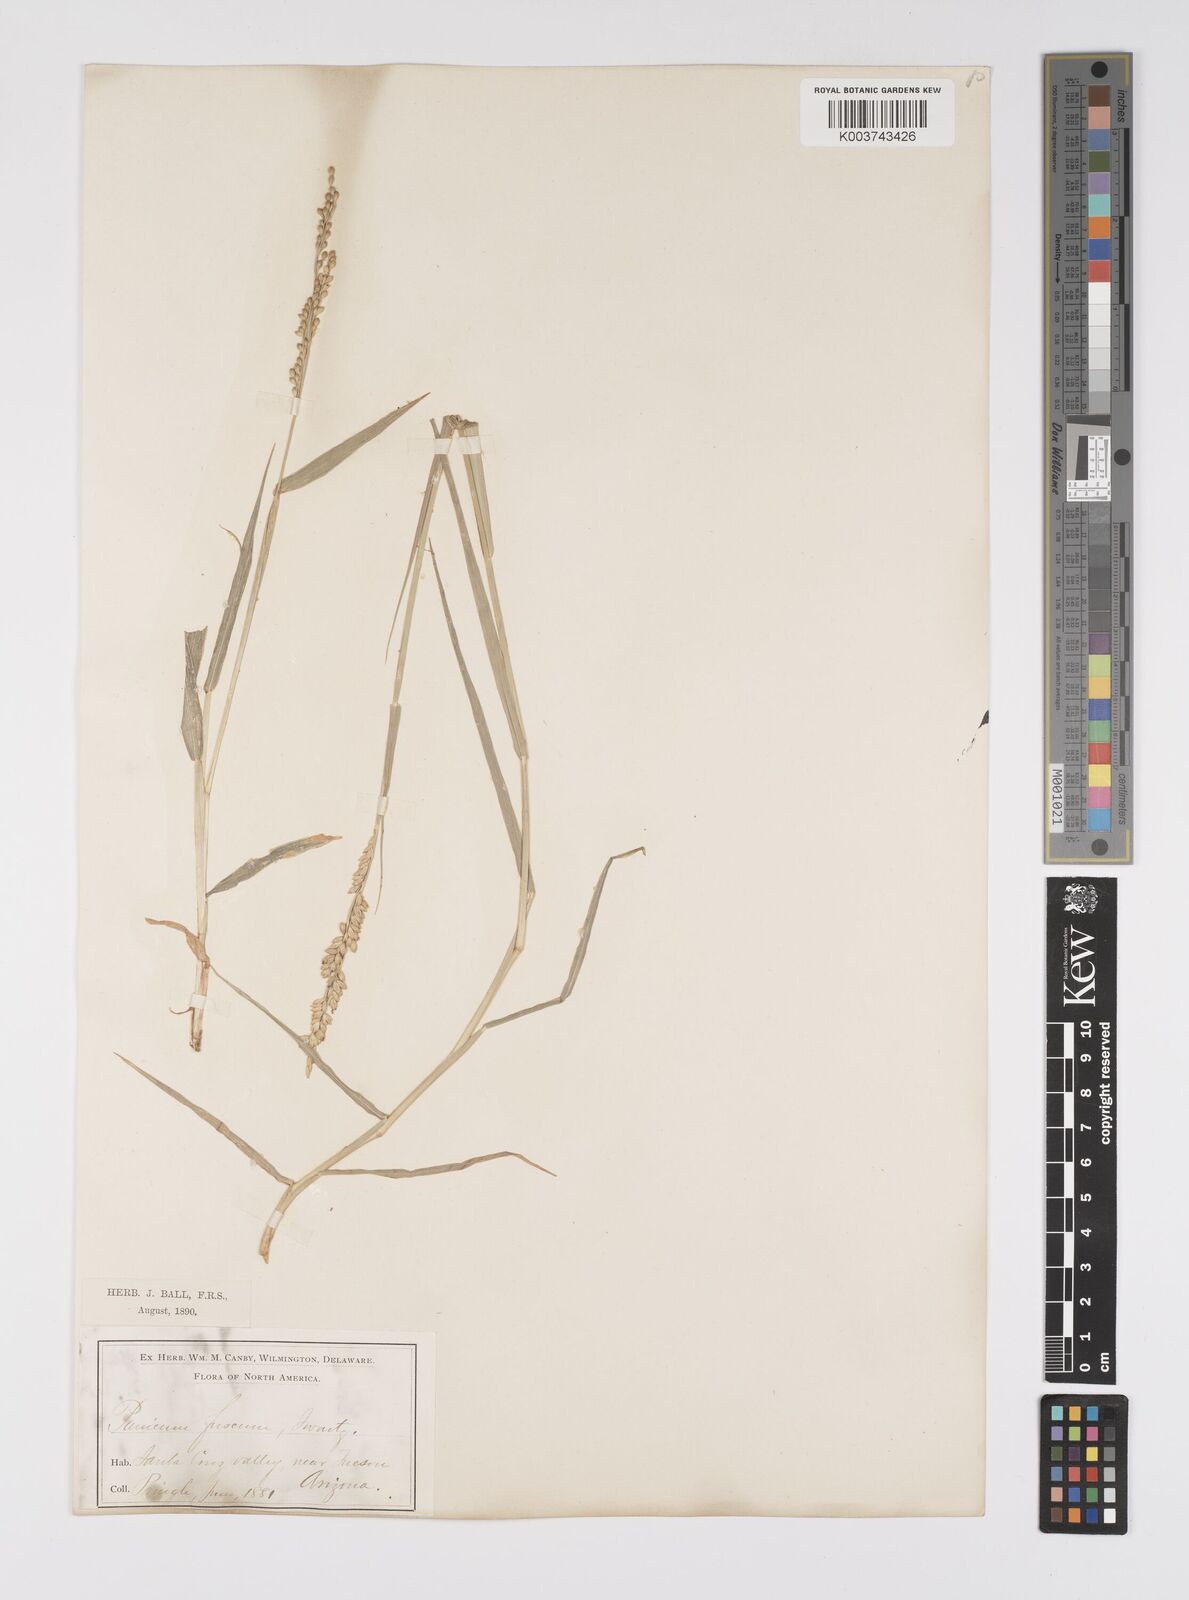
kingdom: Plantae
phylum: Tracheophyta
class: Liliopsida
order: Poales
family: Poaceae
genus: Urochloa
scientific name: Urochloa fusca
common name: Browntop signal grass
